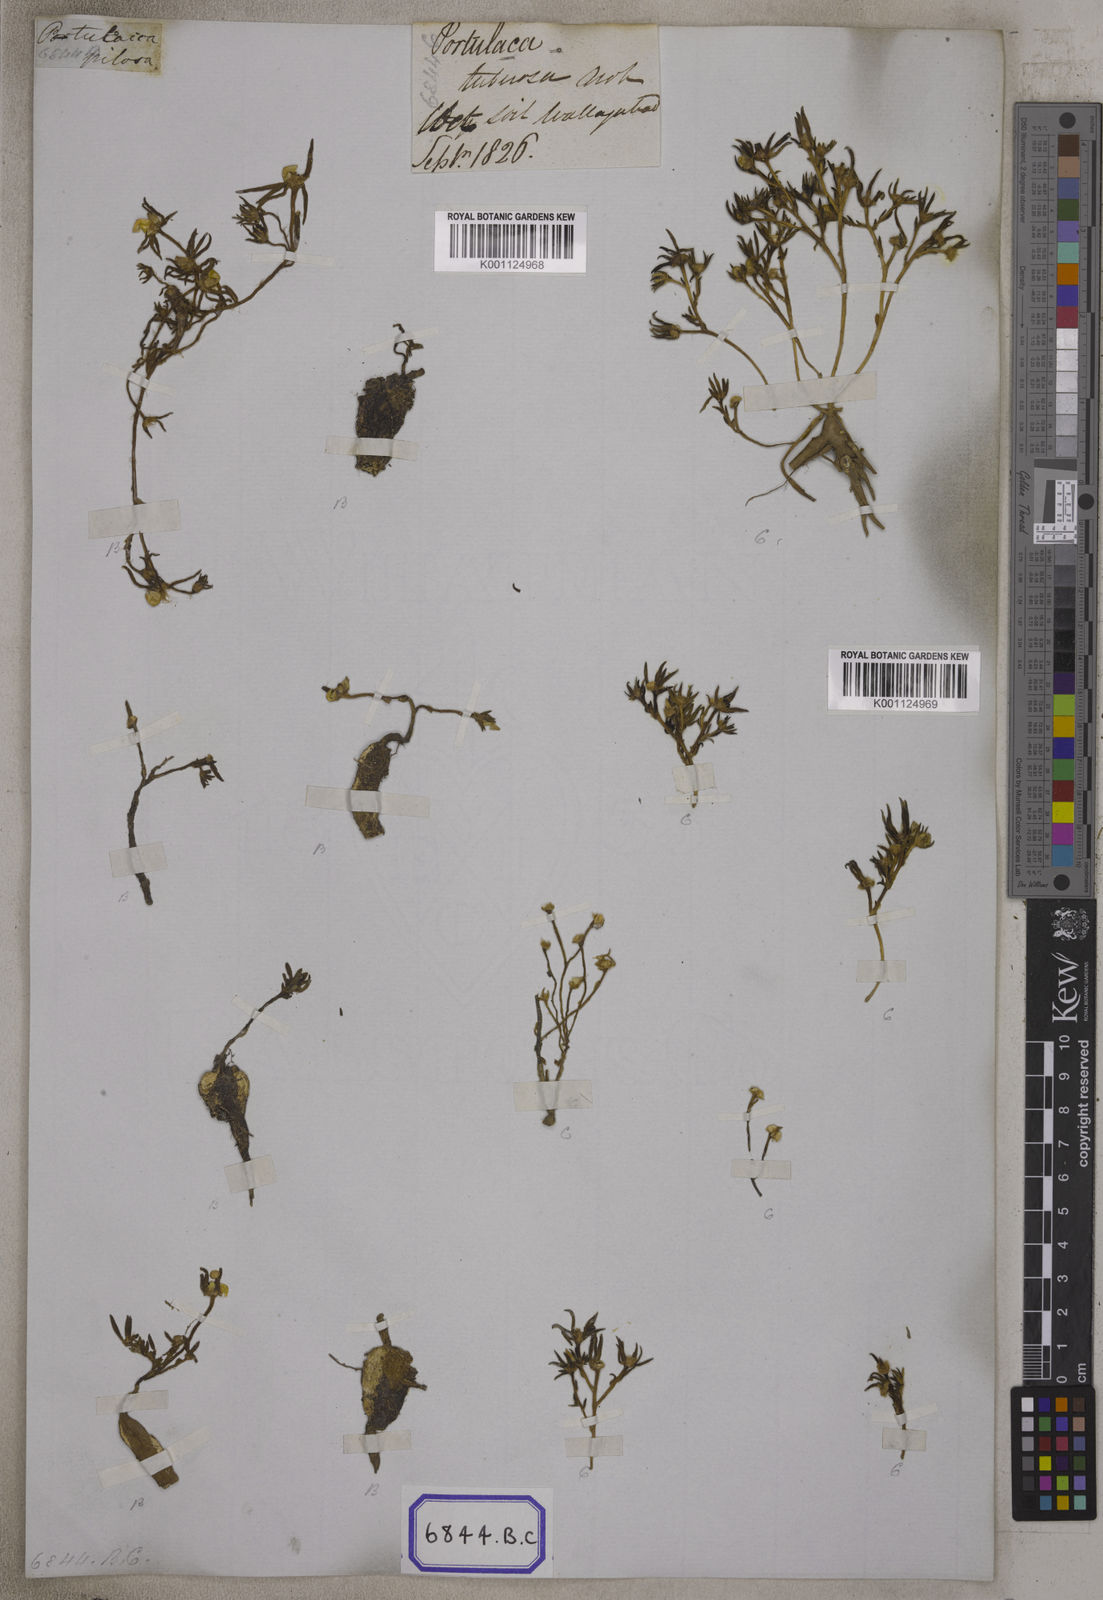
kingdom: Plantae
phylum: Tracheophyta
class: Magnoliopsida
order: Caryophyllales
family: Portulacaceae
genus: Portulaca
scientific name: Portulaca tuberosa
